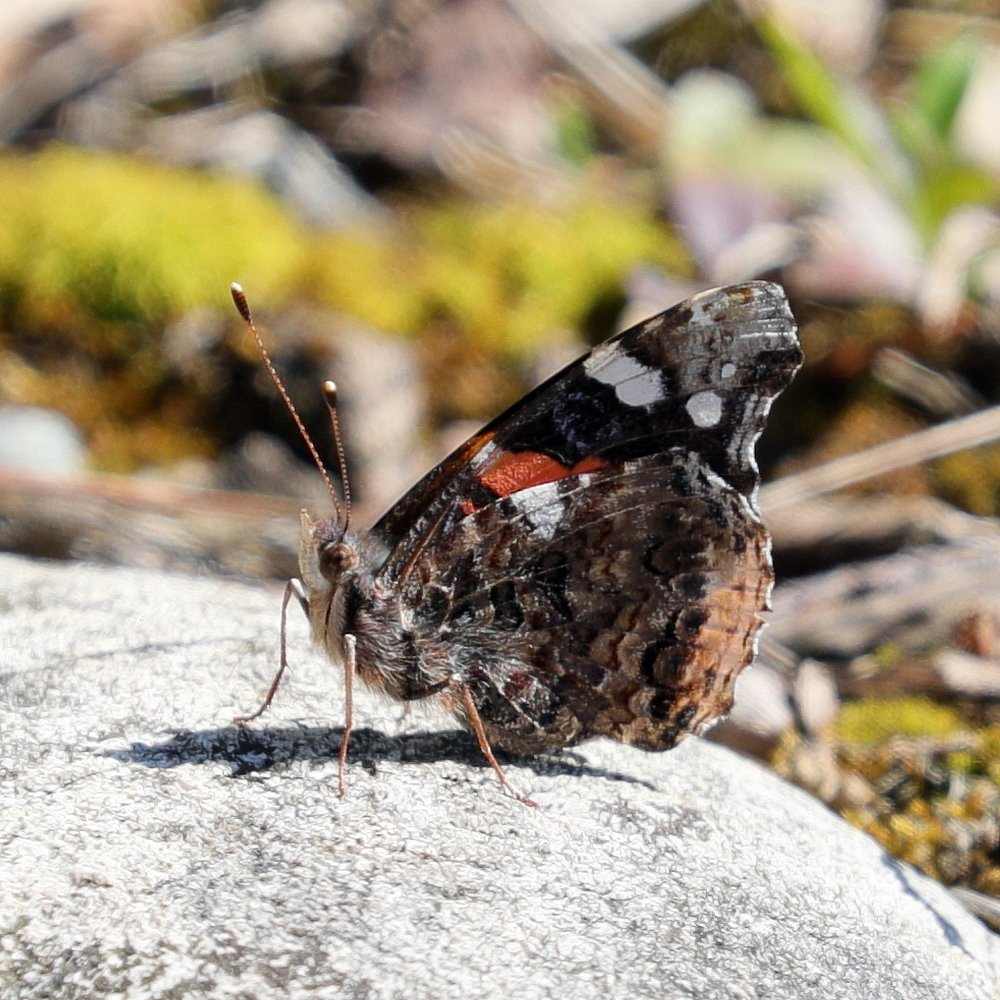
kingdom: Animalia
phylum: Arthropoda
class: Insecta
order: Lepidoptera
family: Nymphalidae
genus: Vanessa
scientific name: Vanessa atalanta
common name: Red Admiral
